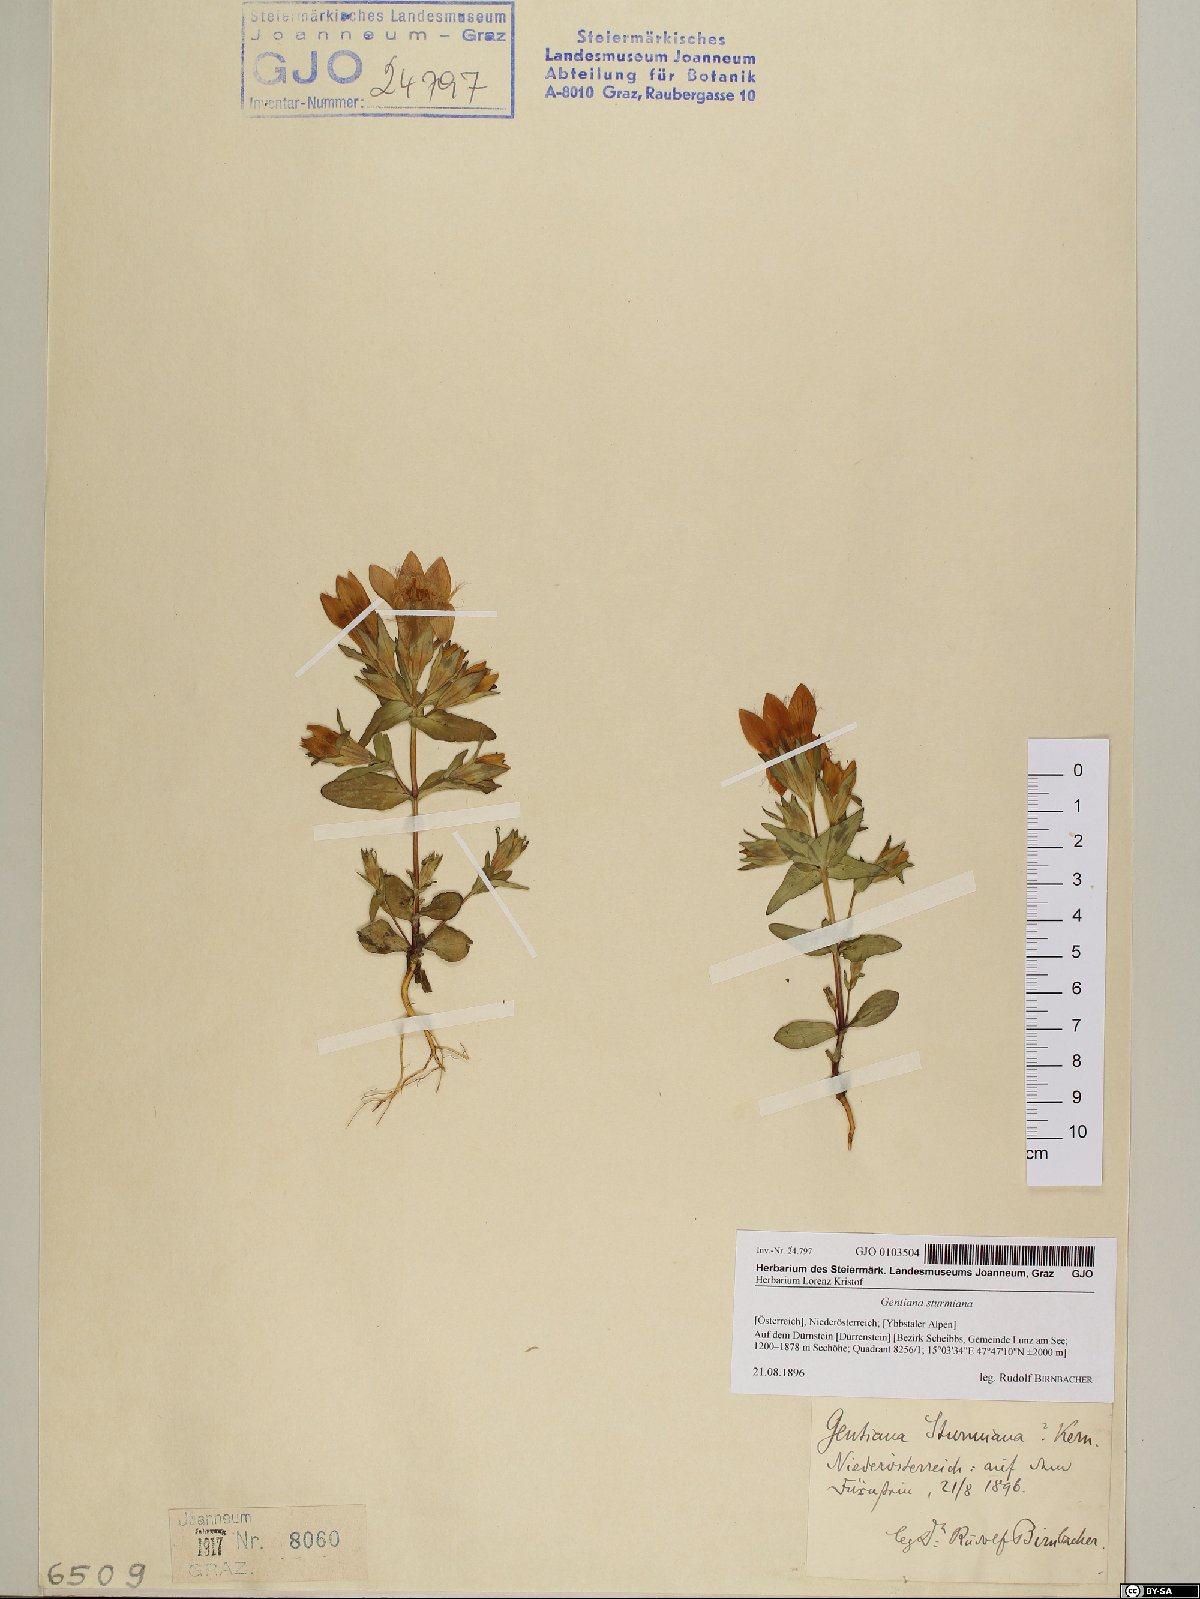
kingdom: Plantae
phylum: Tracheophyta
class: Magnoliopsida
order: Gentianales
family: Gentianaceae
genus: Gentianella
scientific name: Gentianella obtusifolia
